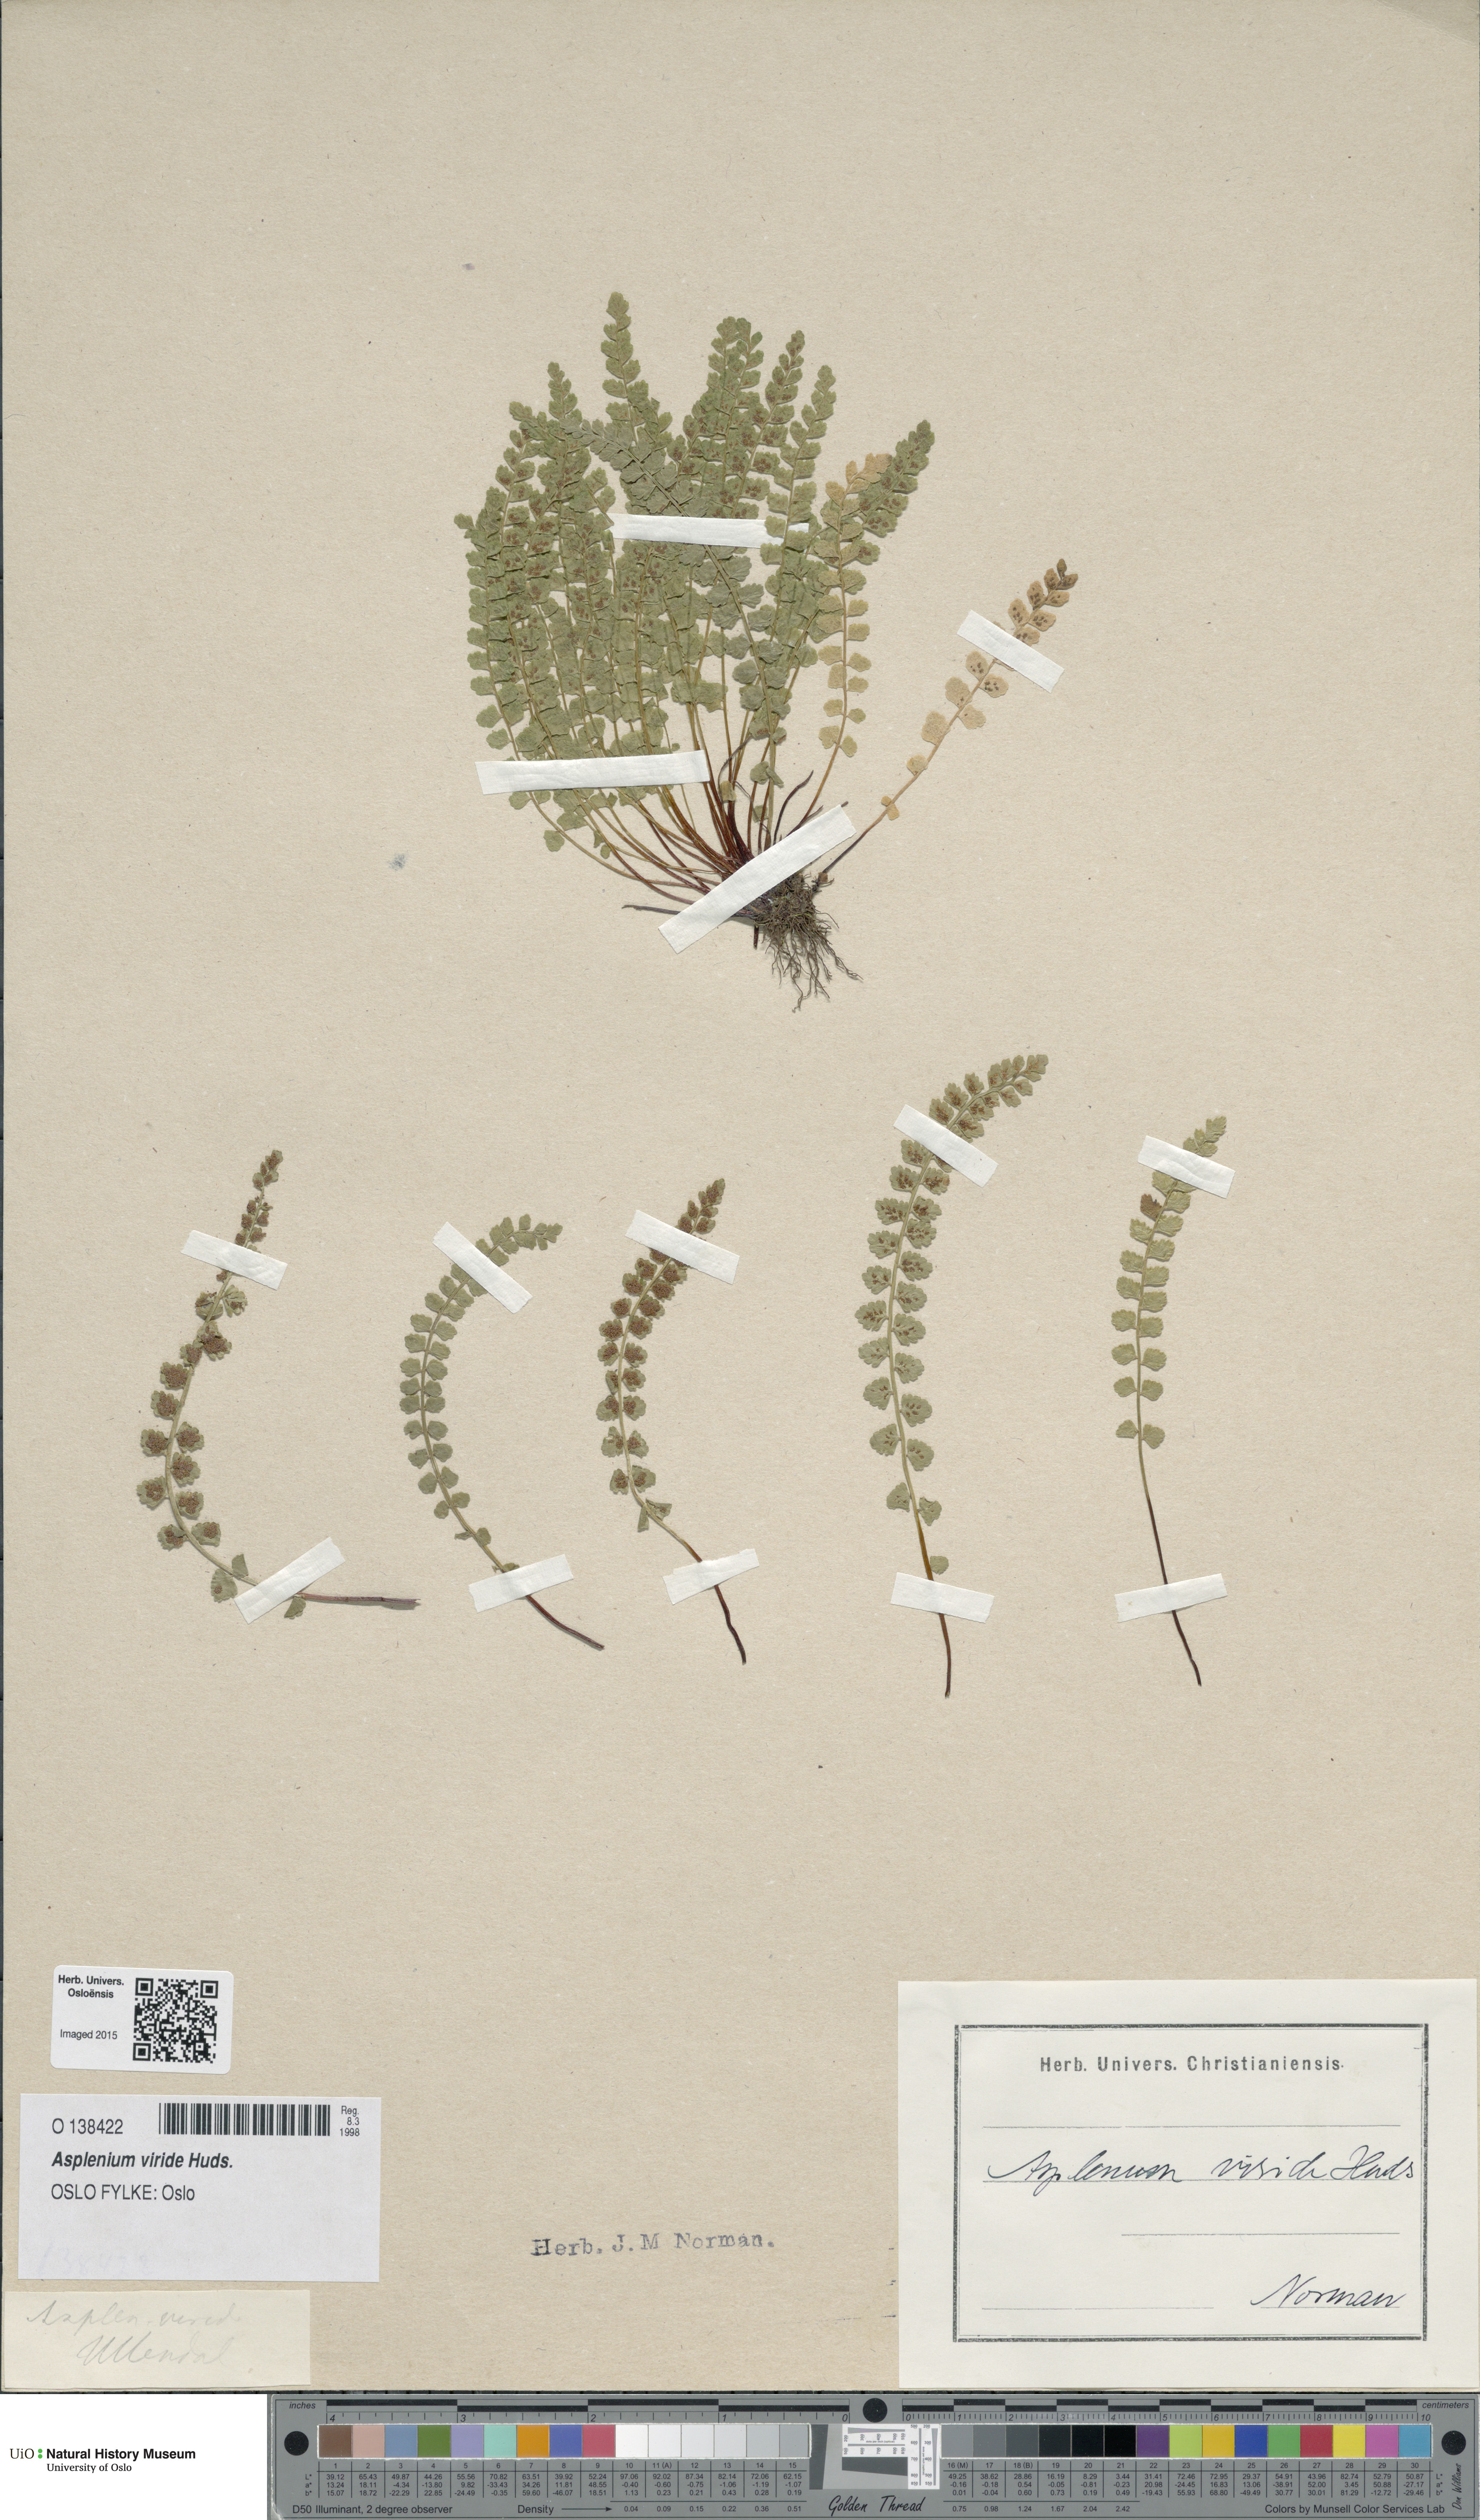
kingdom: Plantae
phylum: Tracheophyta
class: Polypodiopsida
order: Polypodiales
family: Aspleniaceae
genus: Asplenium
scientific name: Asplenium viride
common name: Green spleenwort
